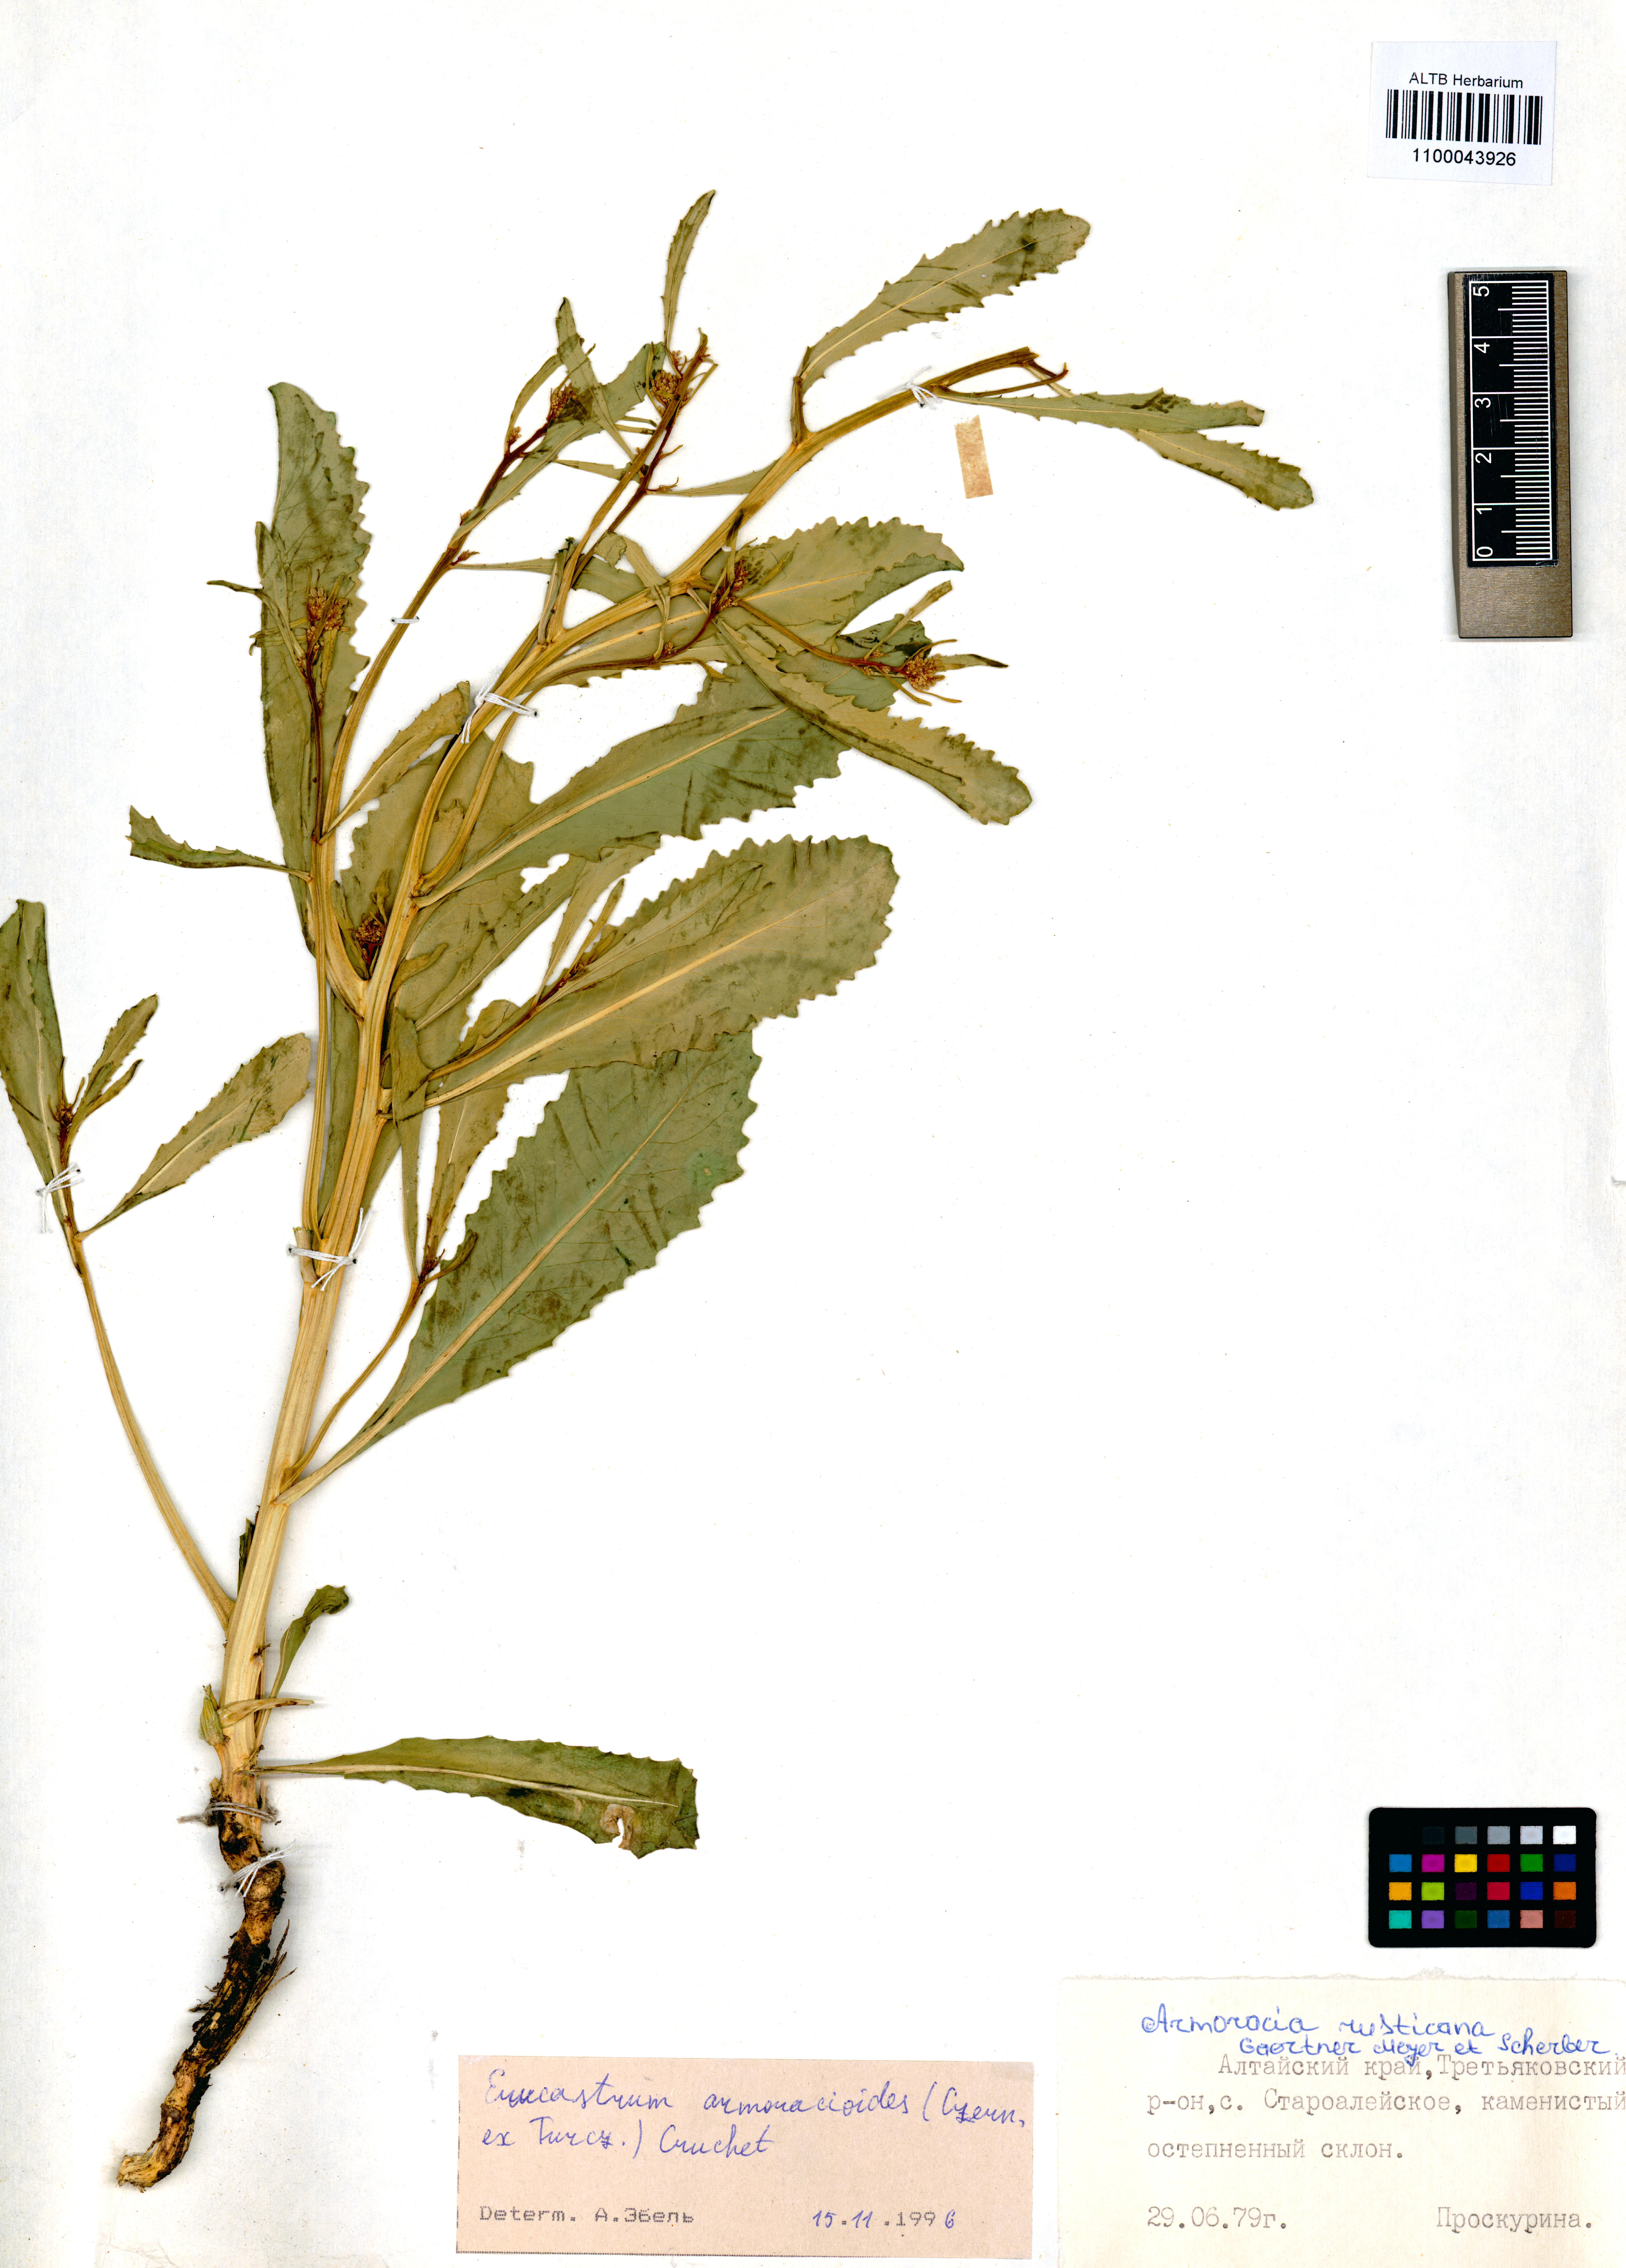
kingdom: Plantae
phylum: Tracheophyta
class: Magnoliopsida
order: Brassicales
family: Brassicaceae
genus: Brassica
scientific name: Brassica elongata
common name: Long-stalked rape
